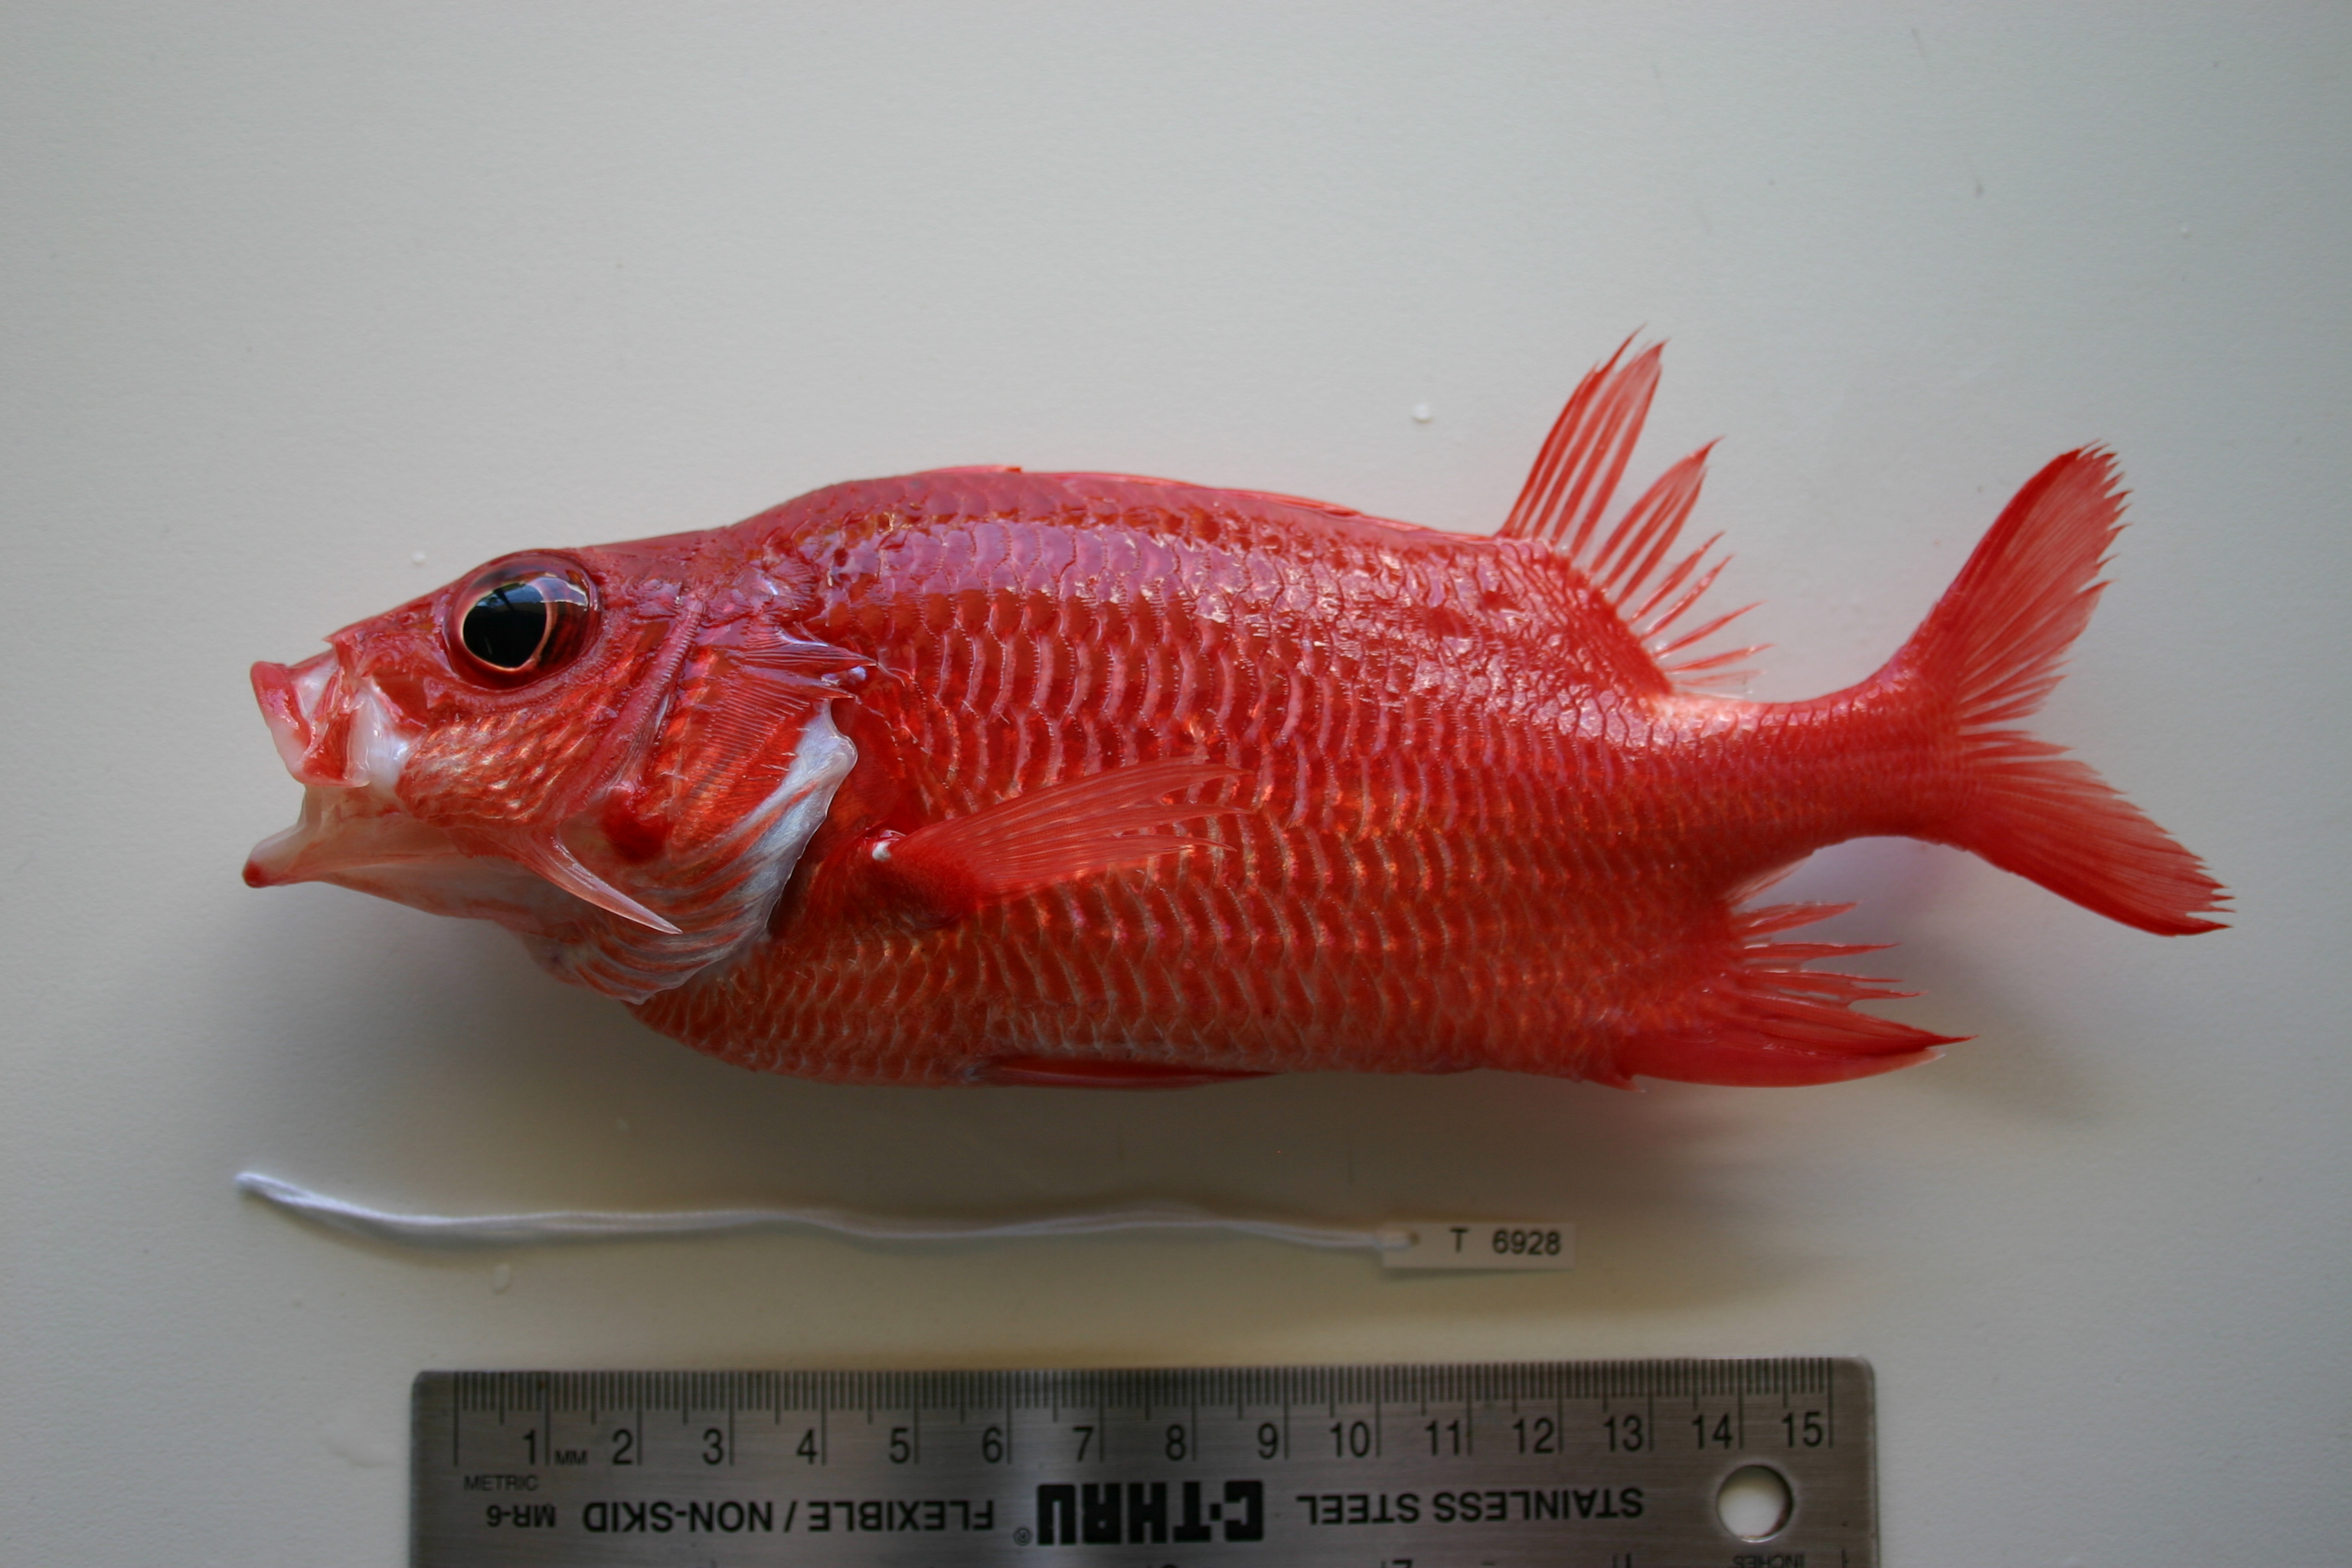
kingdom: Animalia
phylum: Chordata
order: Beryciformes
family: Holocentridae
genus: Sargocentron
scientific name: Sargocentron caudimaculatum
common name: Fanfin soldier
